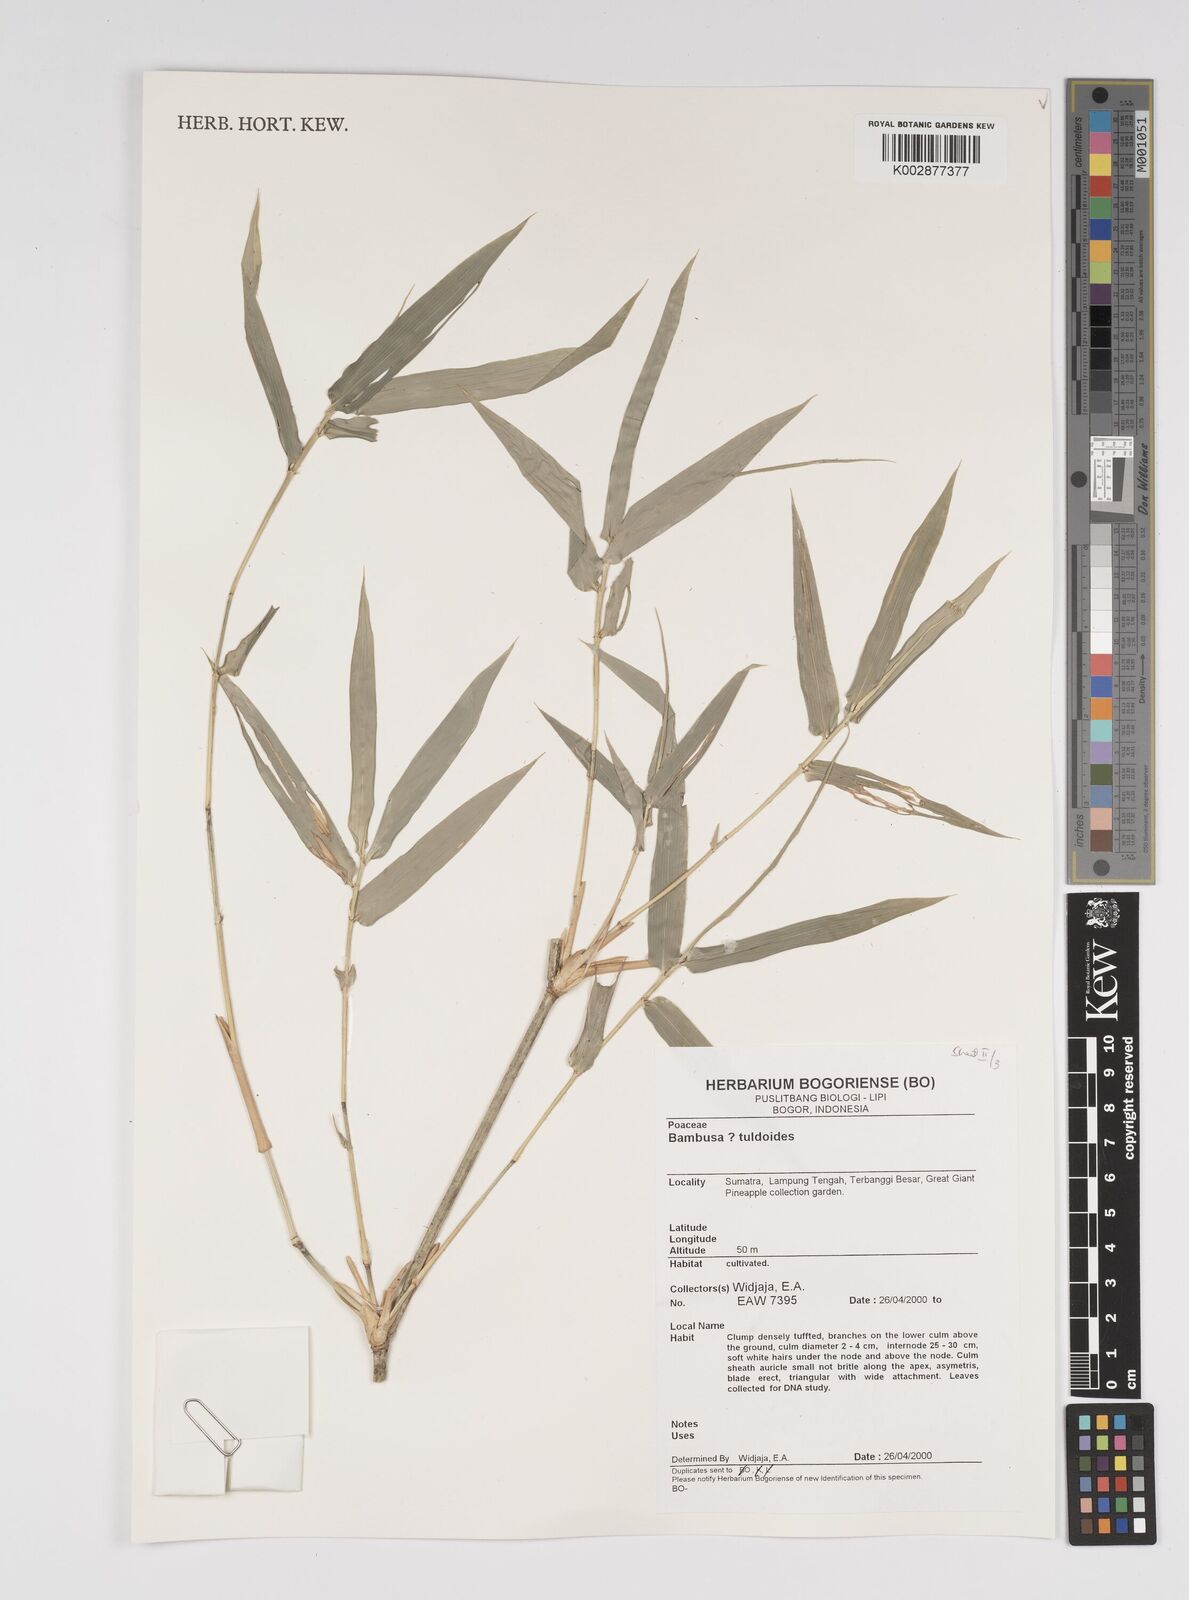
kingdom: Plantae
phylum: Tracheophyta
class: Liliopsida
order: Poales
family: Poaceae
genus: Bambusa
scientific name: Bambusa tuldoides
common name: Verdant bamboo
